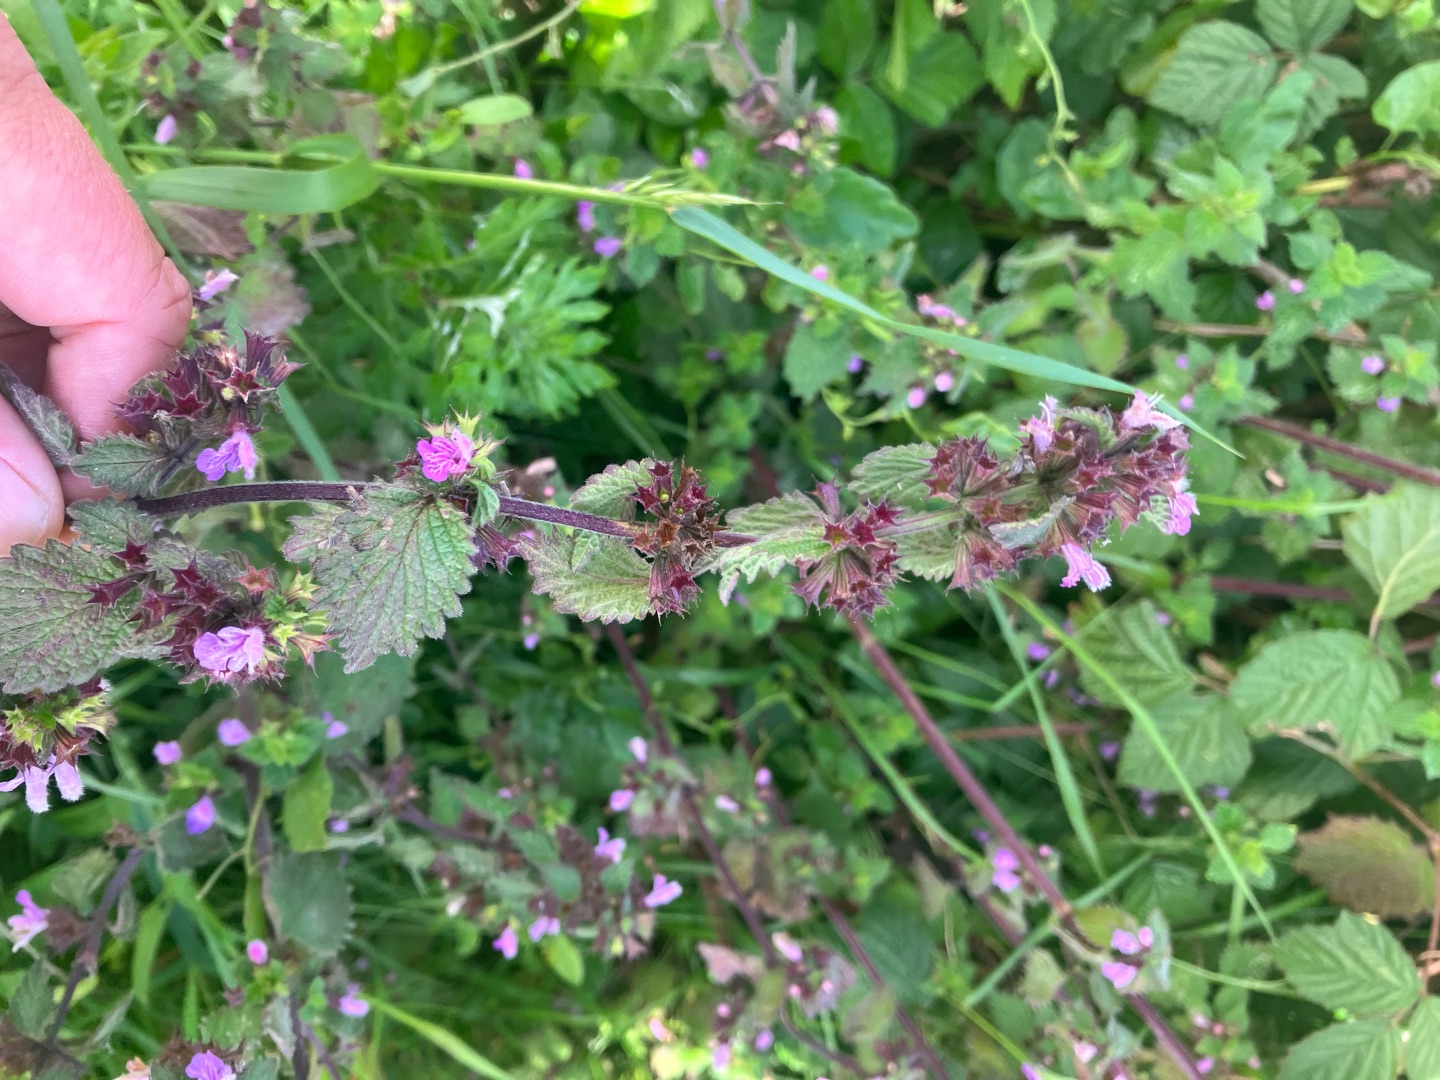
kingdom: Plantae
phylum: Tracheophyta
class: Magnoliopsida
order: Lamiales
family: Lamiaceae
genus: Ballota
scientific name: Ballota nigra
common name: Rød tandbæger
